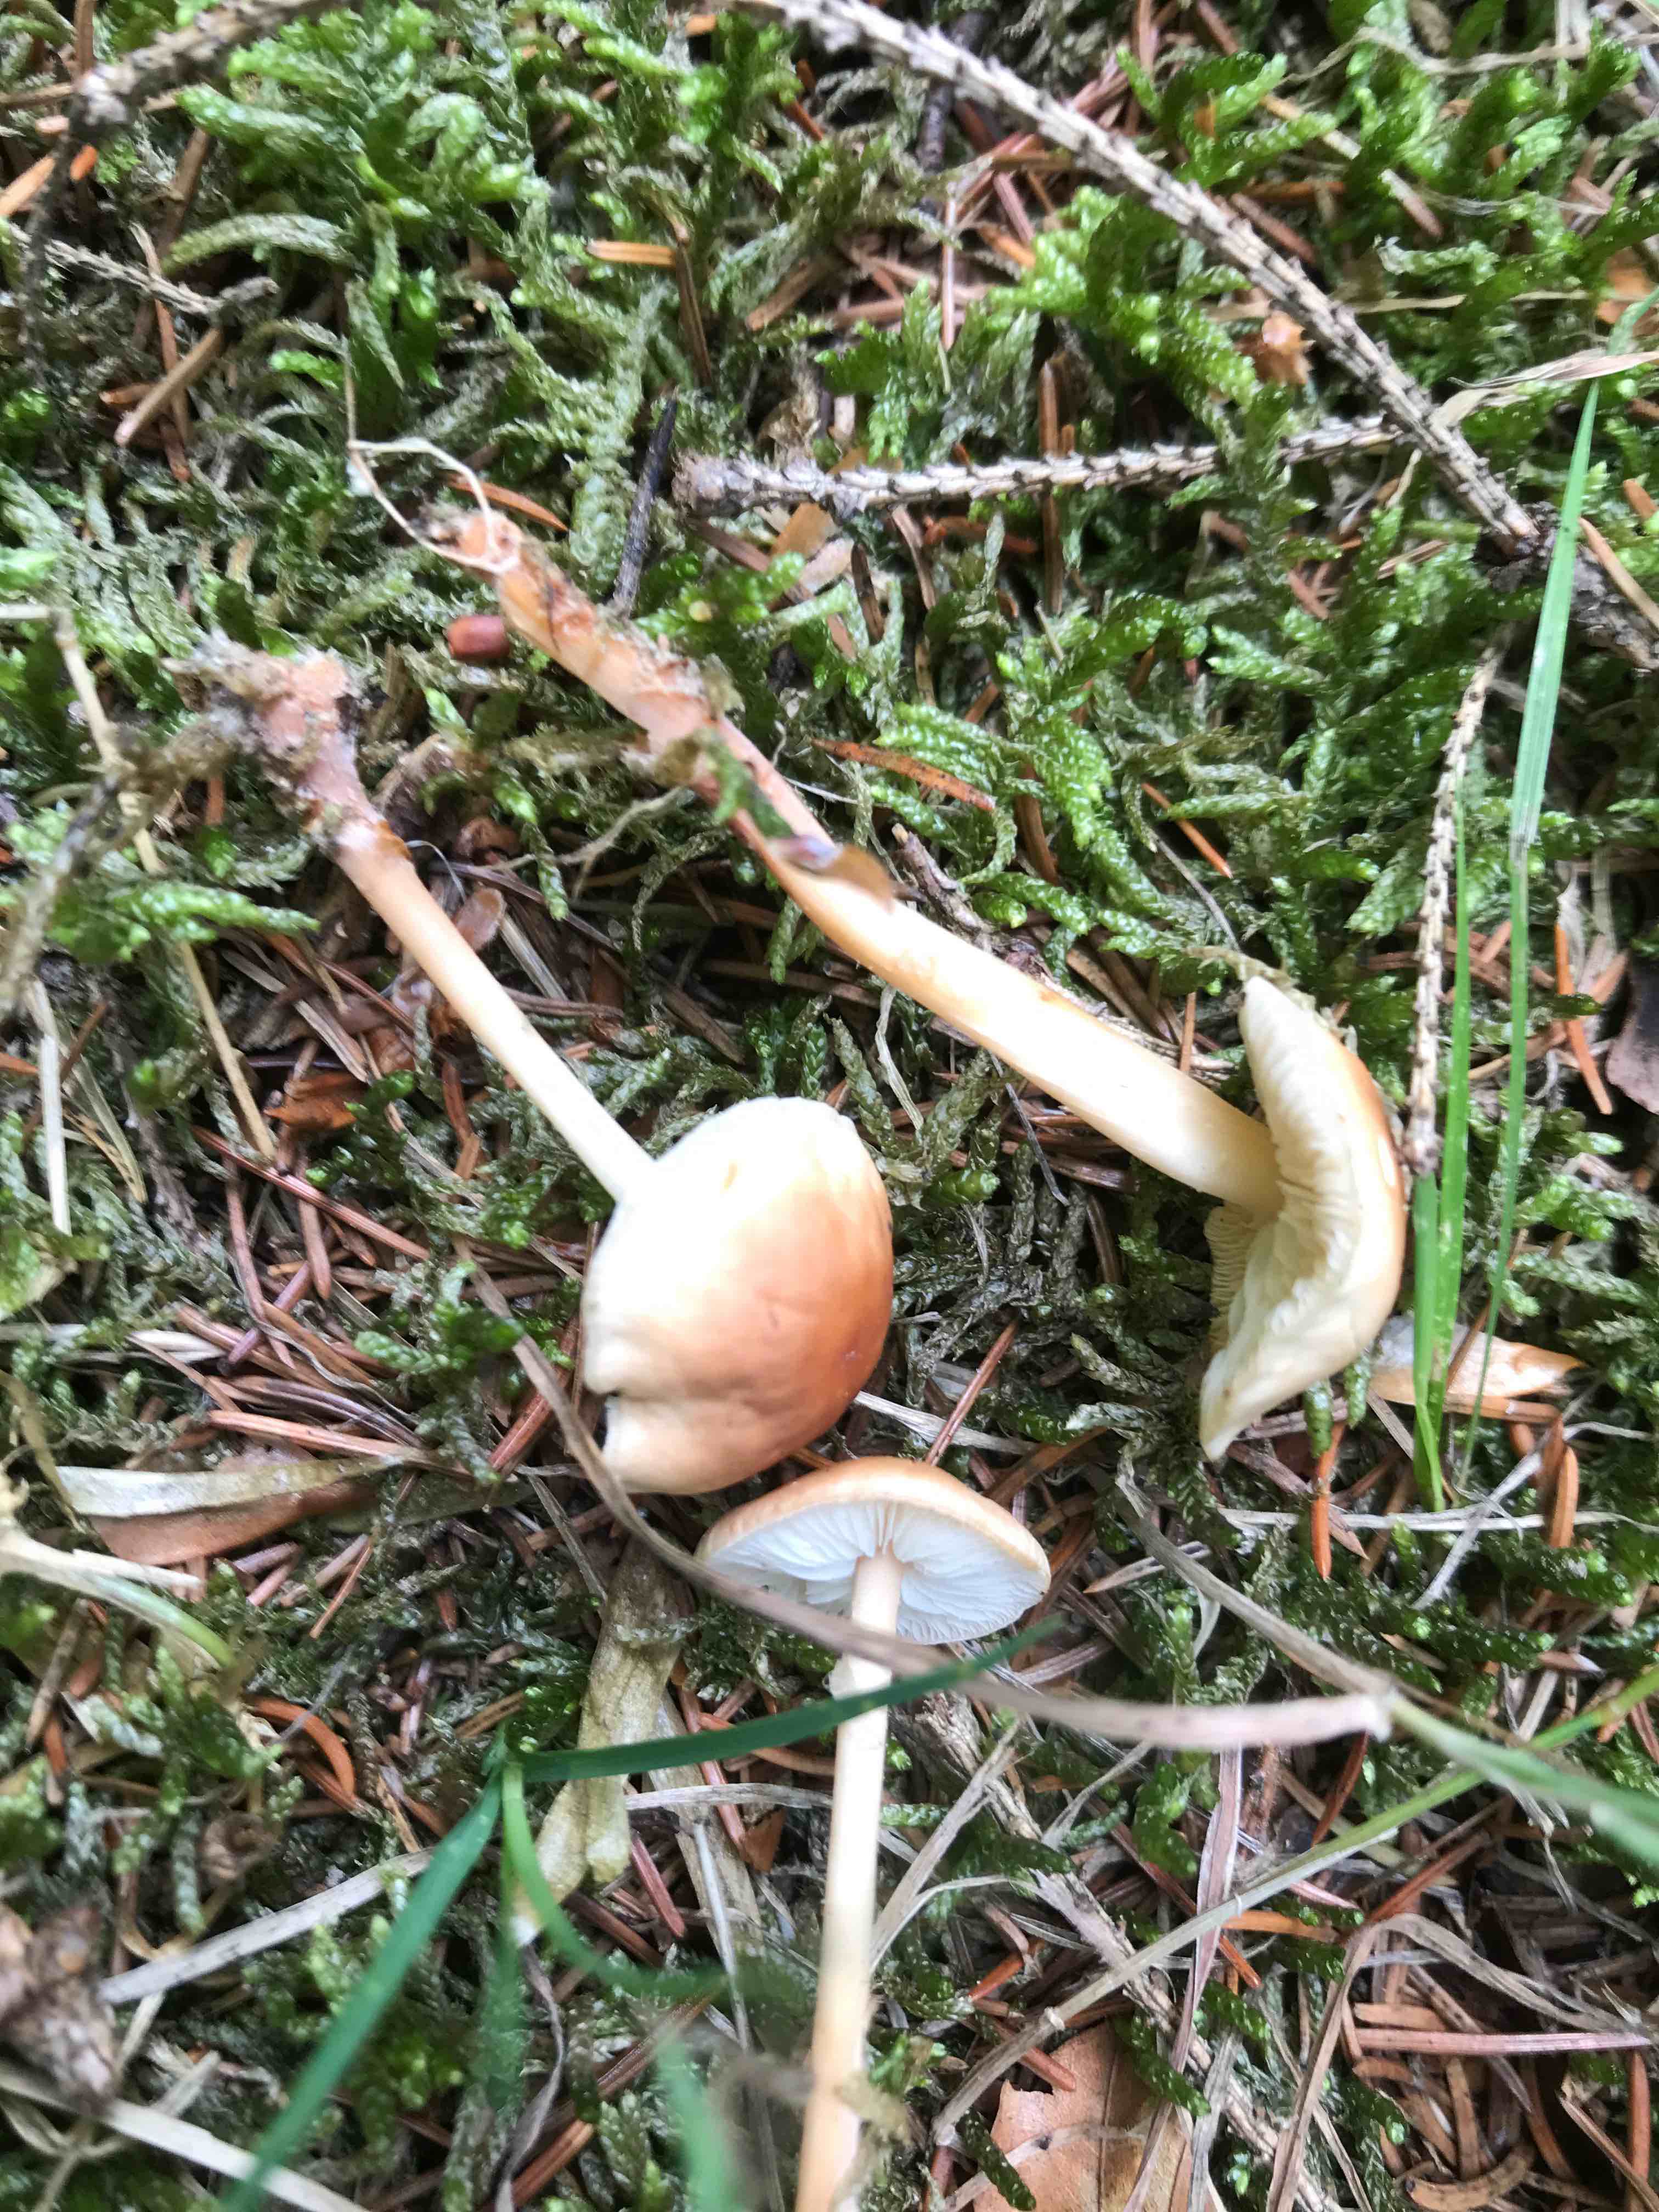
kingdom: Fungi
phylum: Basidiomycota
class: Agaricomycetes
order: Agaricales
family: Omphalotaceae
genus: Gymnopus
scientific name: Gymnopus dryophilus
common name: løv-fladhat
